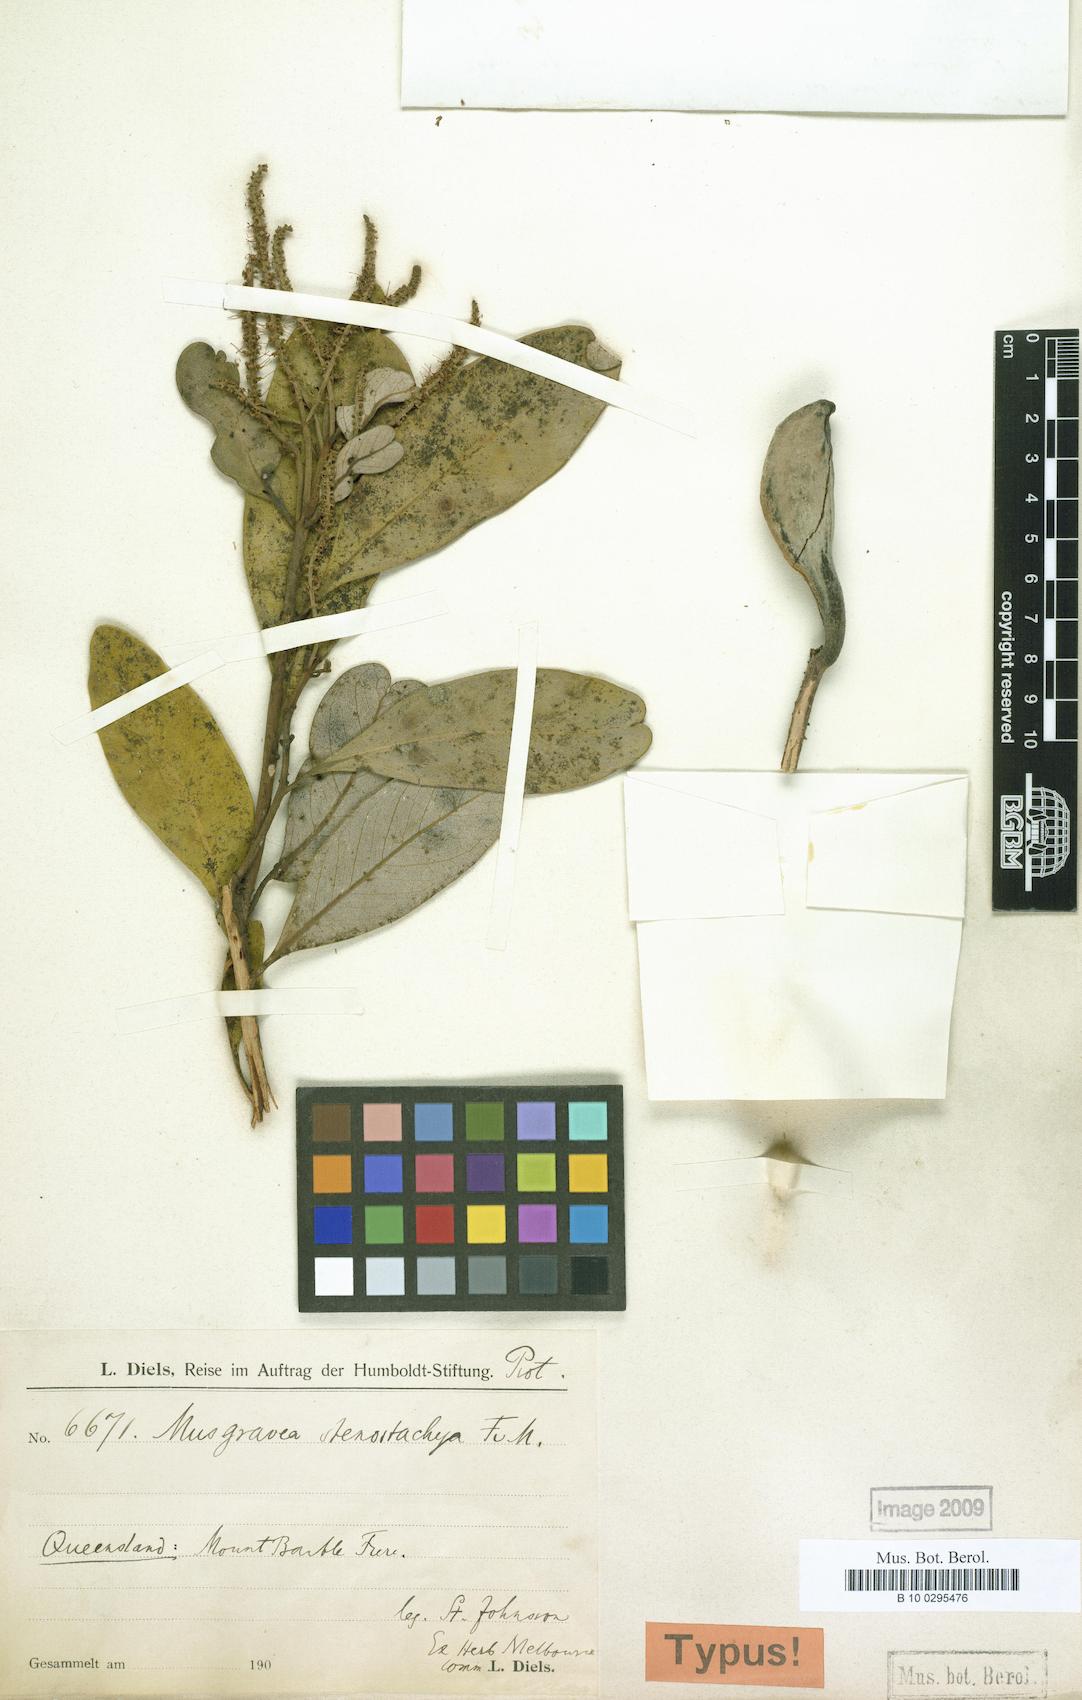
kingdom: Plantae
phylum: Tracheophyta
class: Magnoliopsida
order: Proteales
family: Proteaceae
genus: Musgravea
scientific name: Musgravea stenostachya
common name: Crater silky oak
